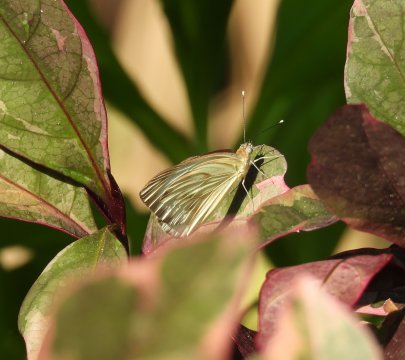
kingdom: Animalia
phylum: Arthropoda
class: Insecta
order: Lepidoptera
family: Pieridae
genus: Ascia
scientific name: Ascia monuste
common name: Great Southern White
